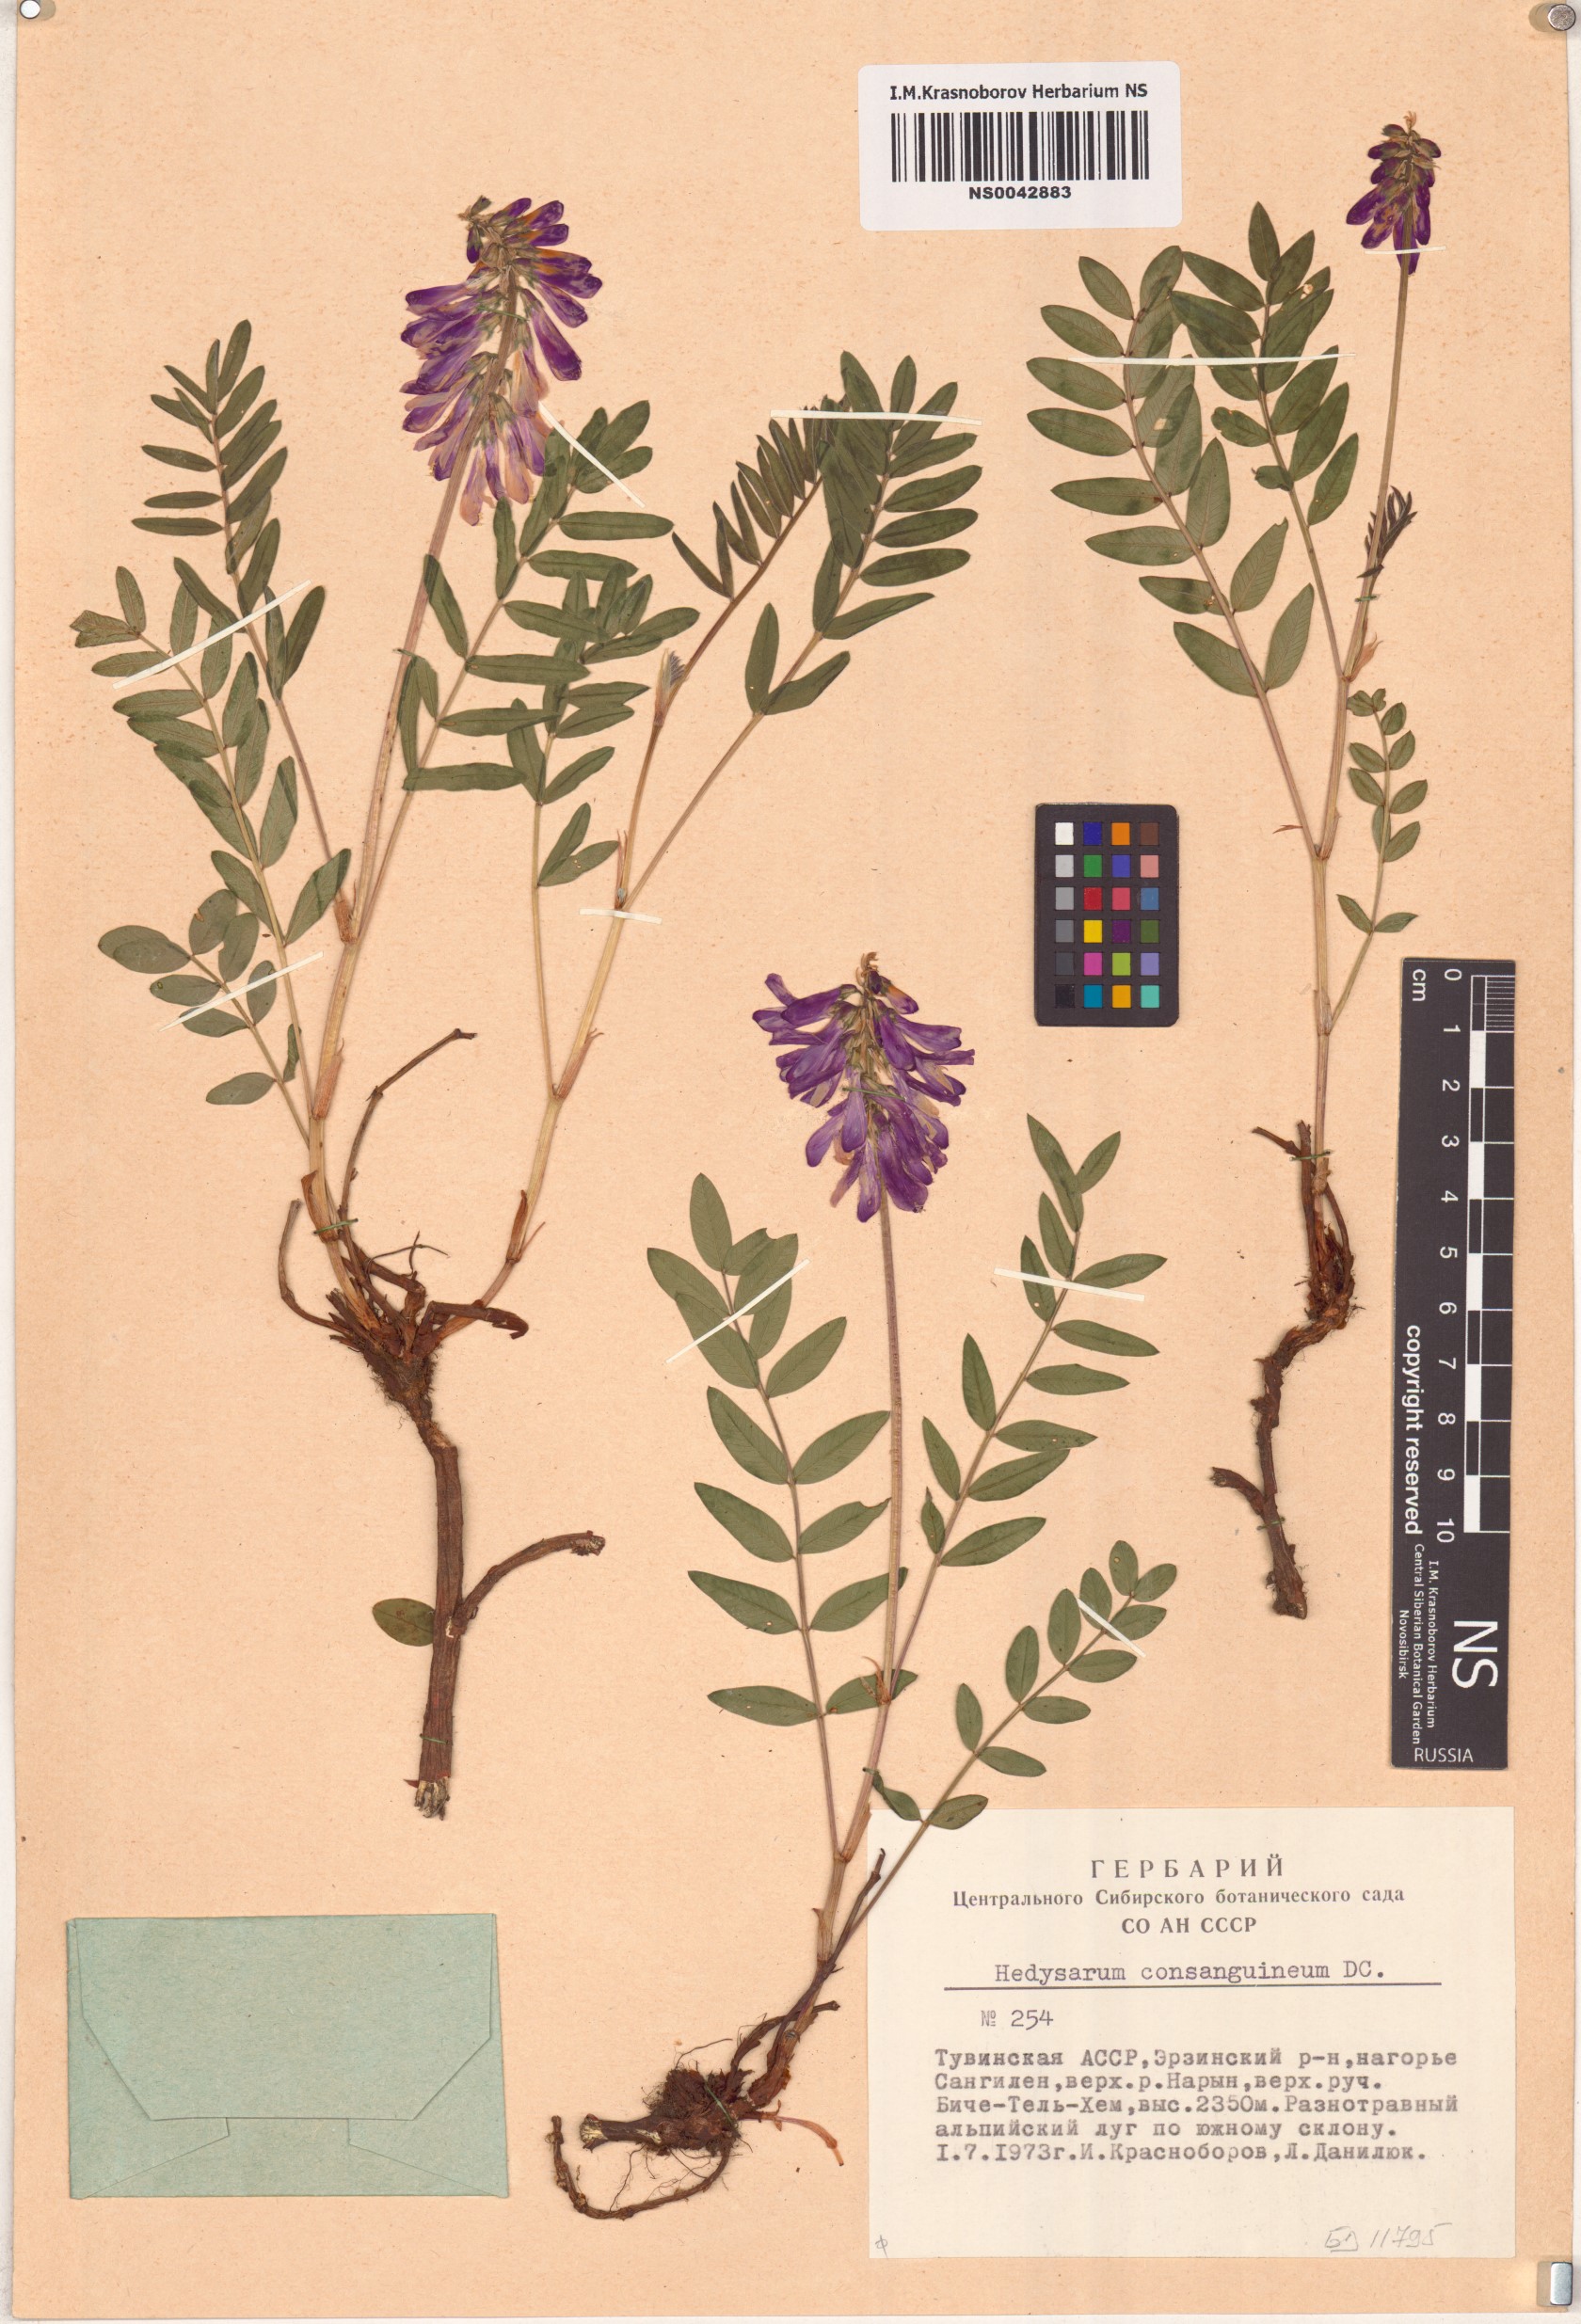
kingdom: Plantae
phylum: Tracheophyta
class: Magnoliopsida
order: Fabales
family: Fabaceae
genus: Hedysarum
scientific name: Hedysarum consanguineum
